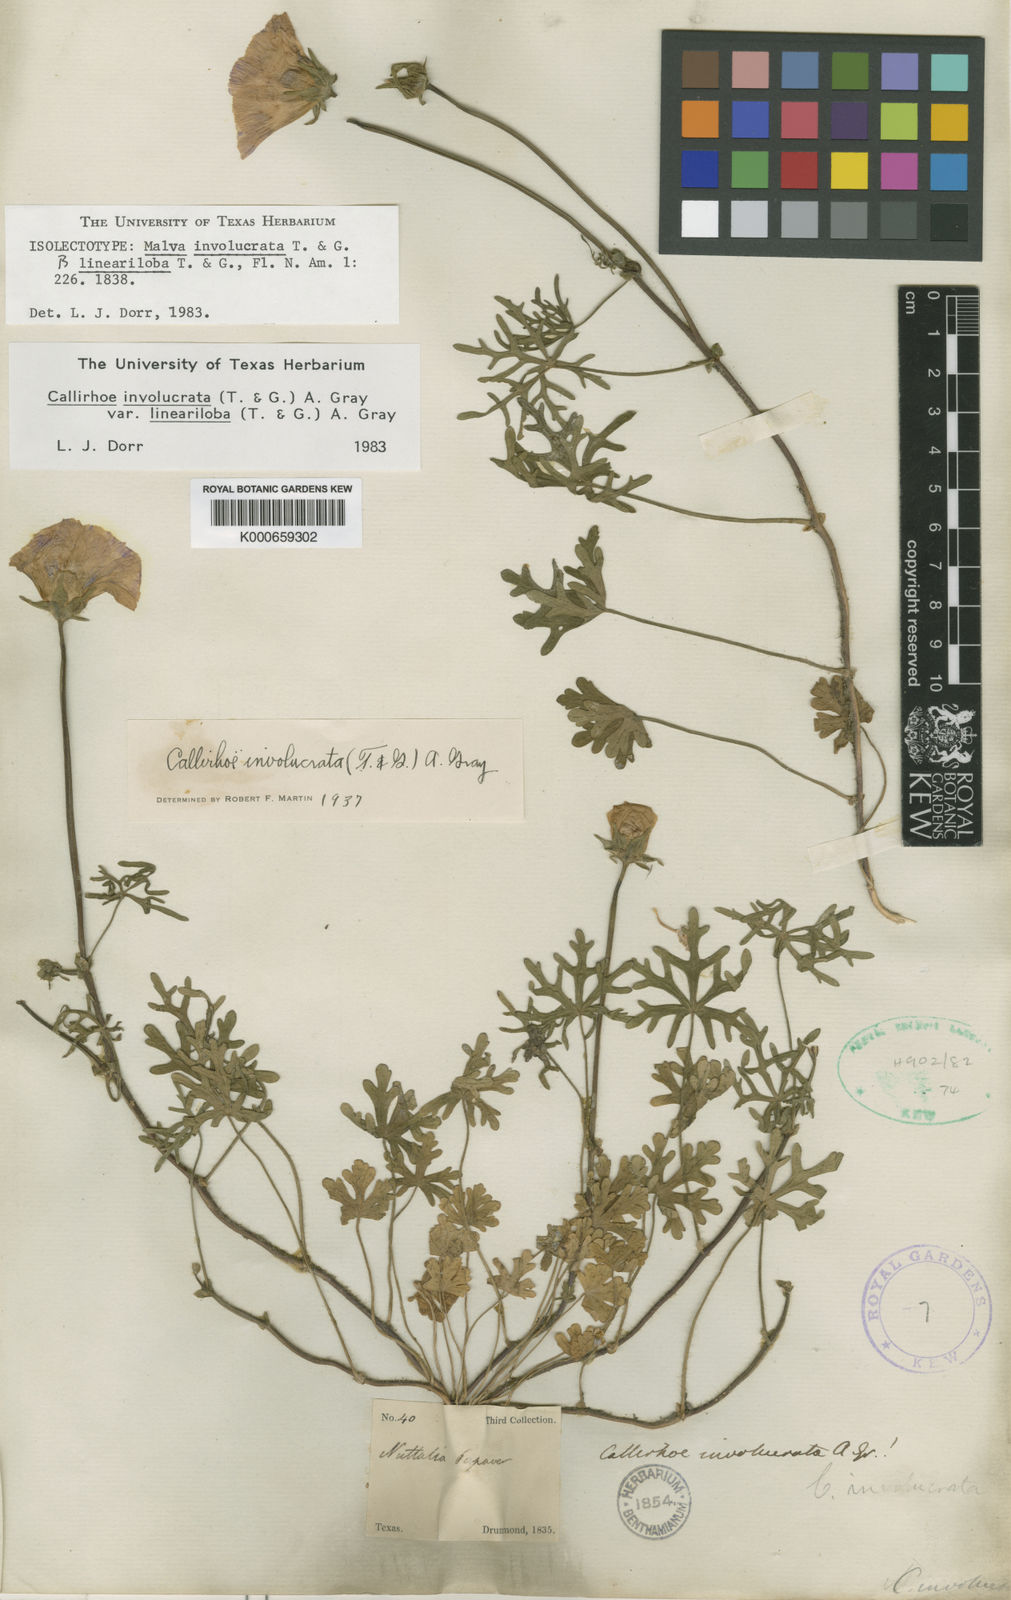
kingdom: Plantae
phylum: Tracheophyta
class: Magnoliopsida
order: Malvales
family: Malvaceae
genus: Callirhoe
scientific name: Callirhoe involucrata
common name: Purple poppy-mallow
